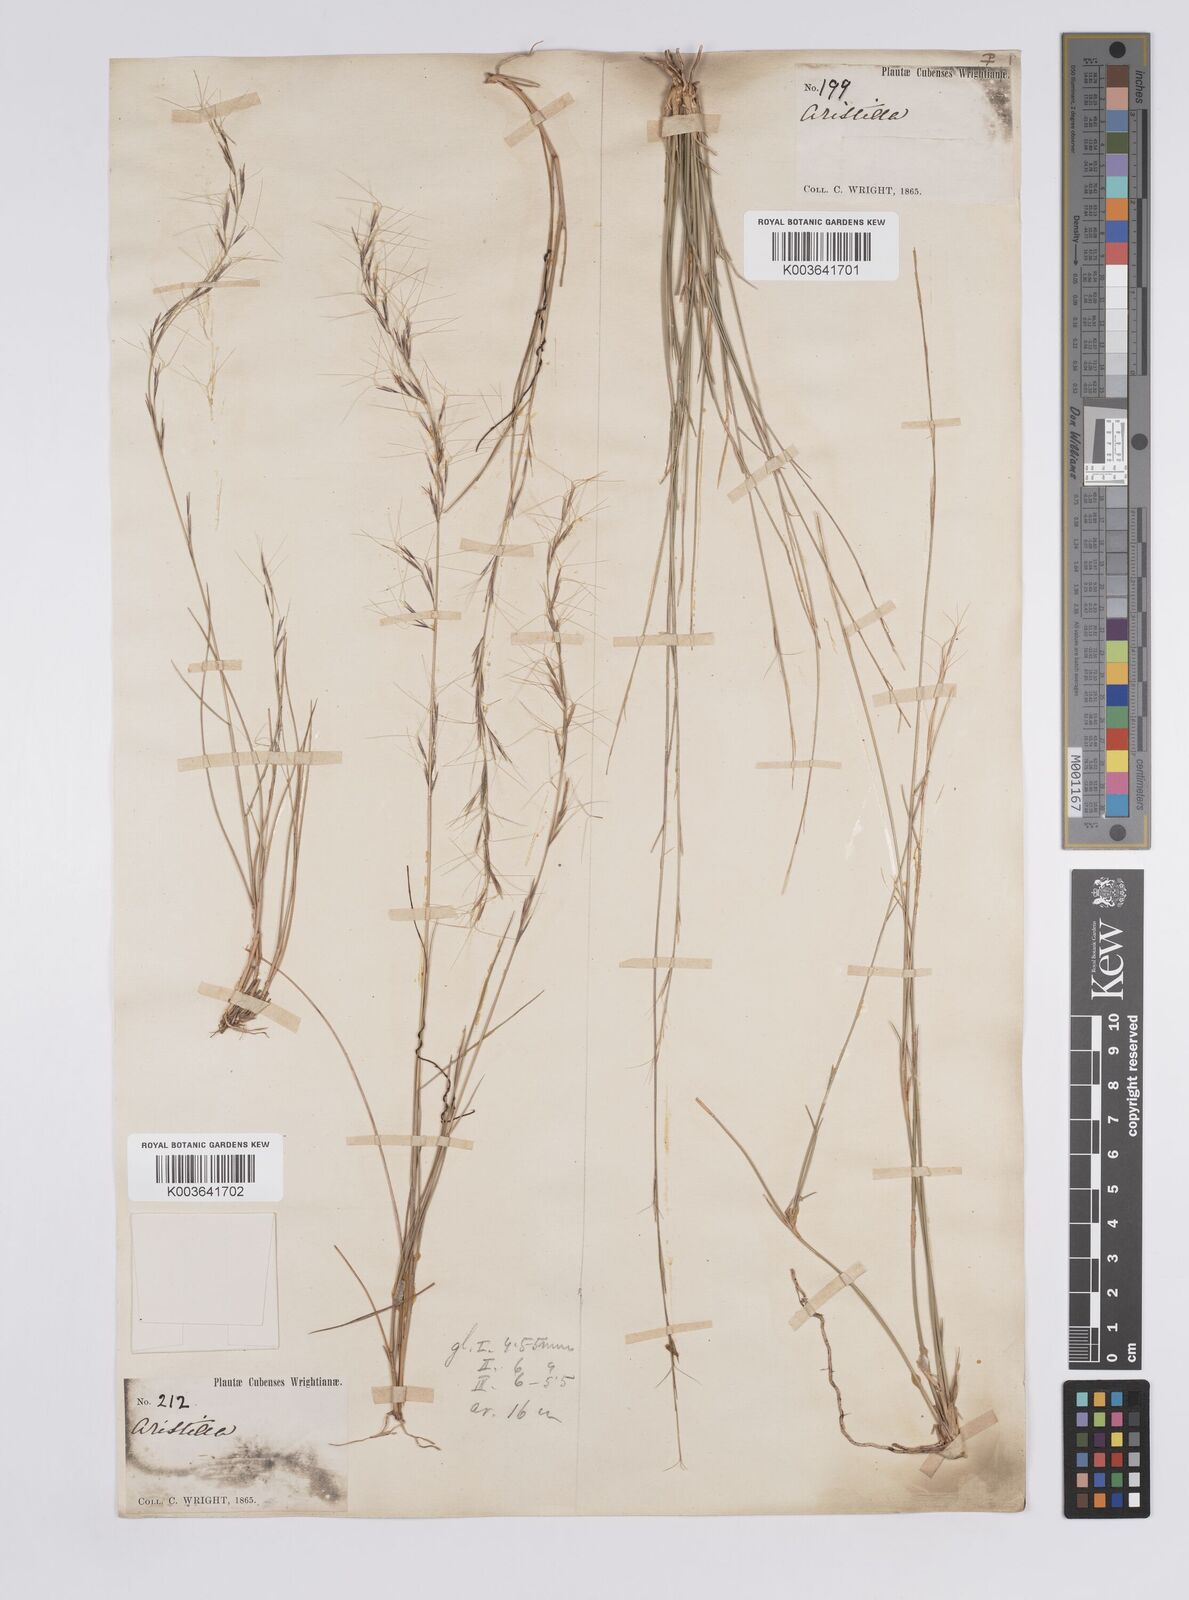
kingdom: Plantae
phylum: Tracheophyta
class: Liliopsida
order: Poales
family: Poaceae
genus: Aristida
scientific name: Aristida rosei
